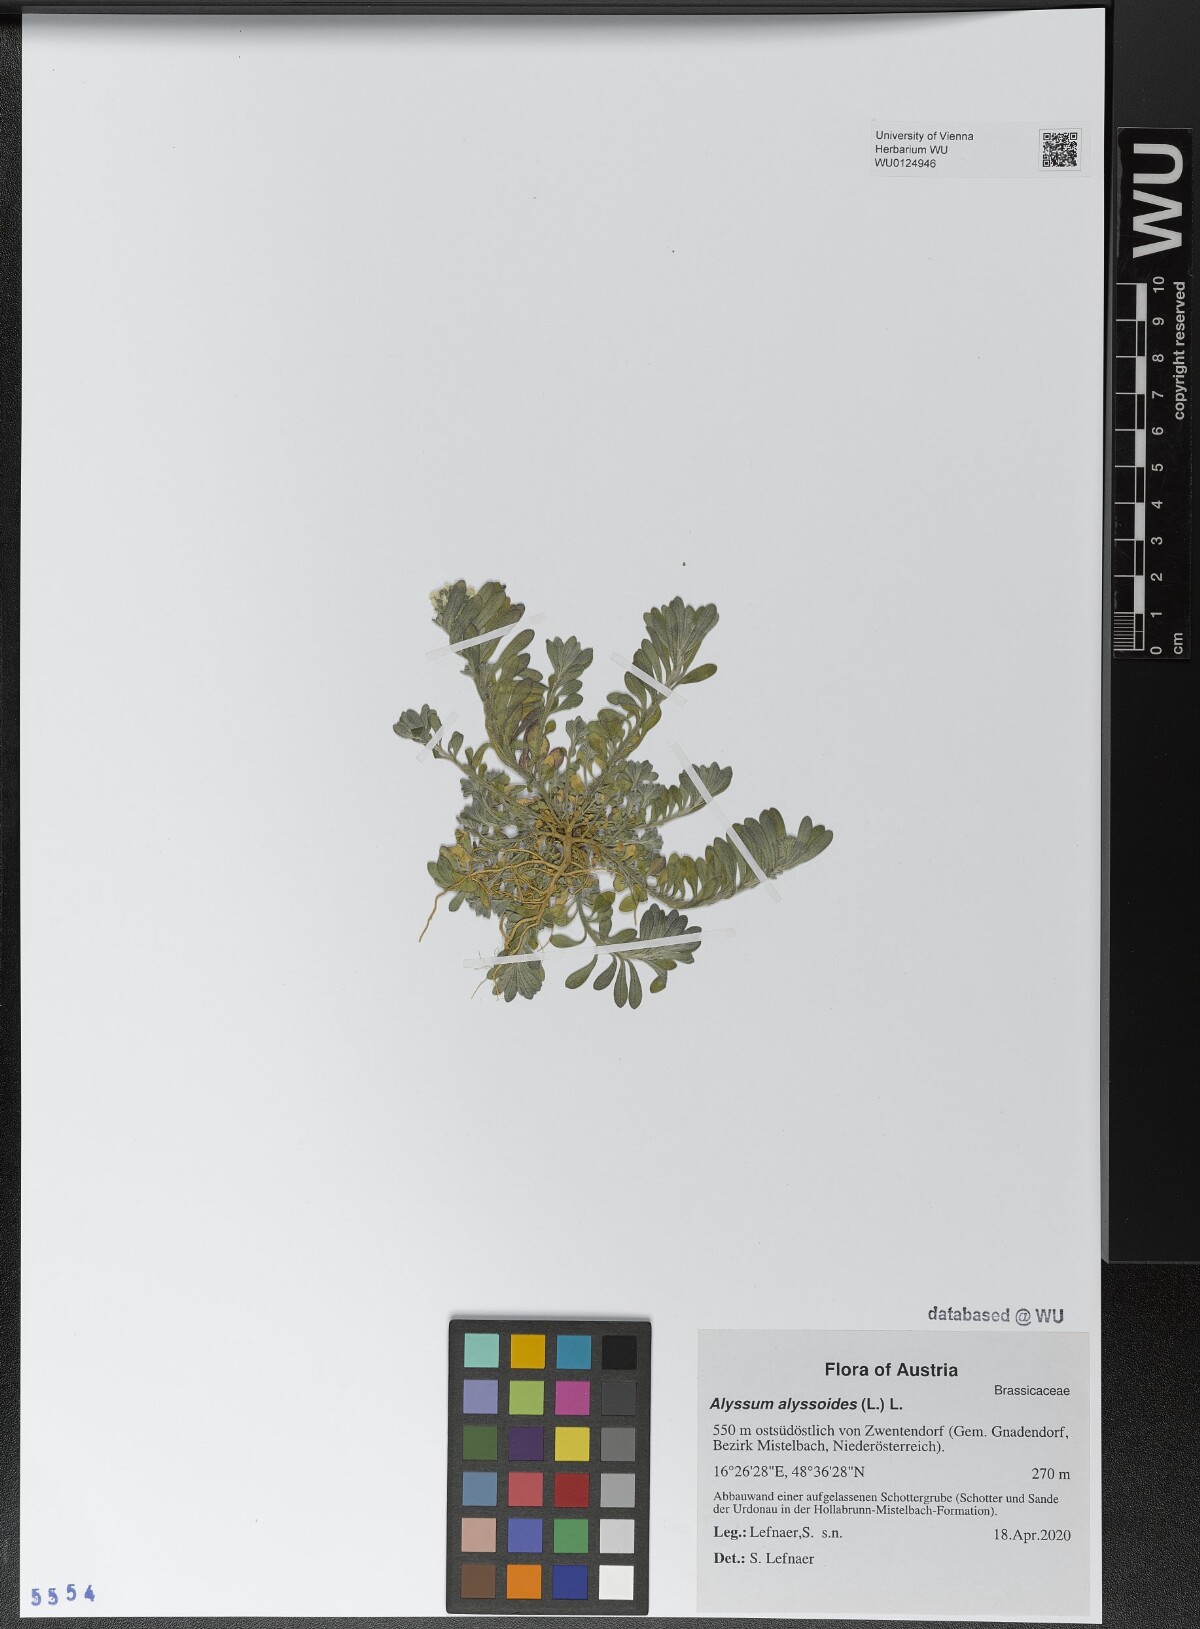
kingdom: Plantae
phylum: Tracheophyta
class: Magnoliopsida
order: Brassicales
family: Brassicaceae
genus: Alyssum
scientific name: Alyssum alyssoides
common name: Small alison
